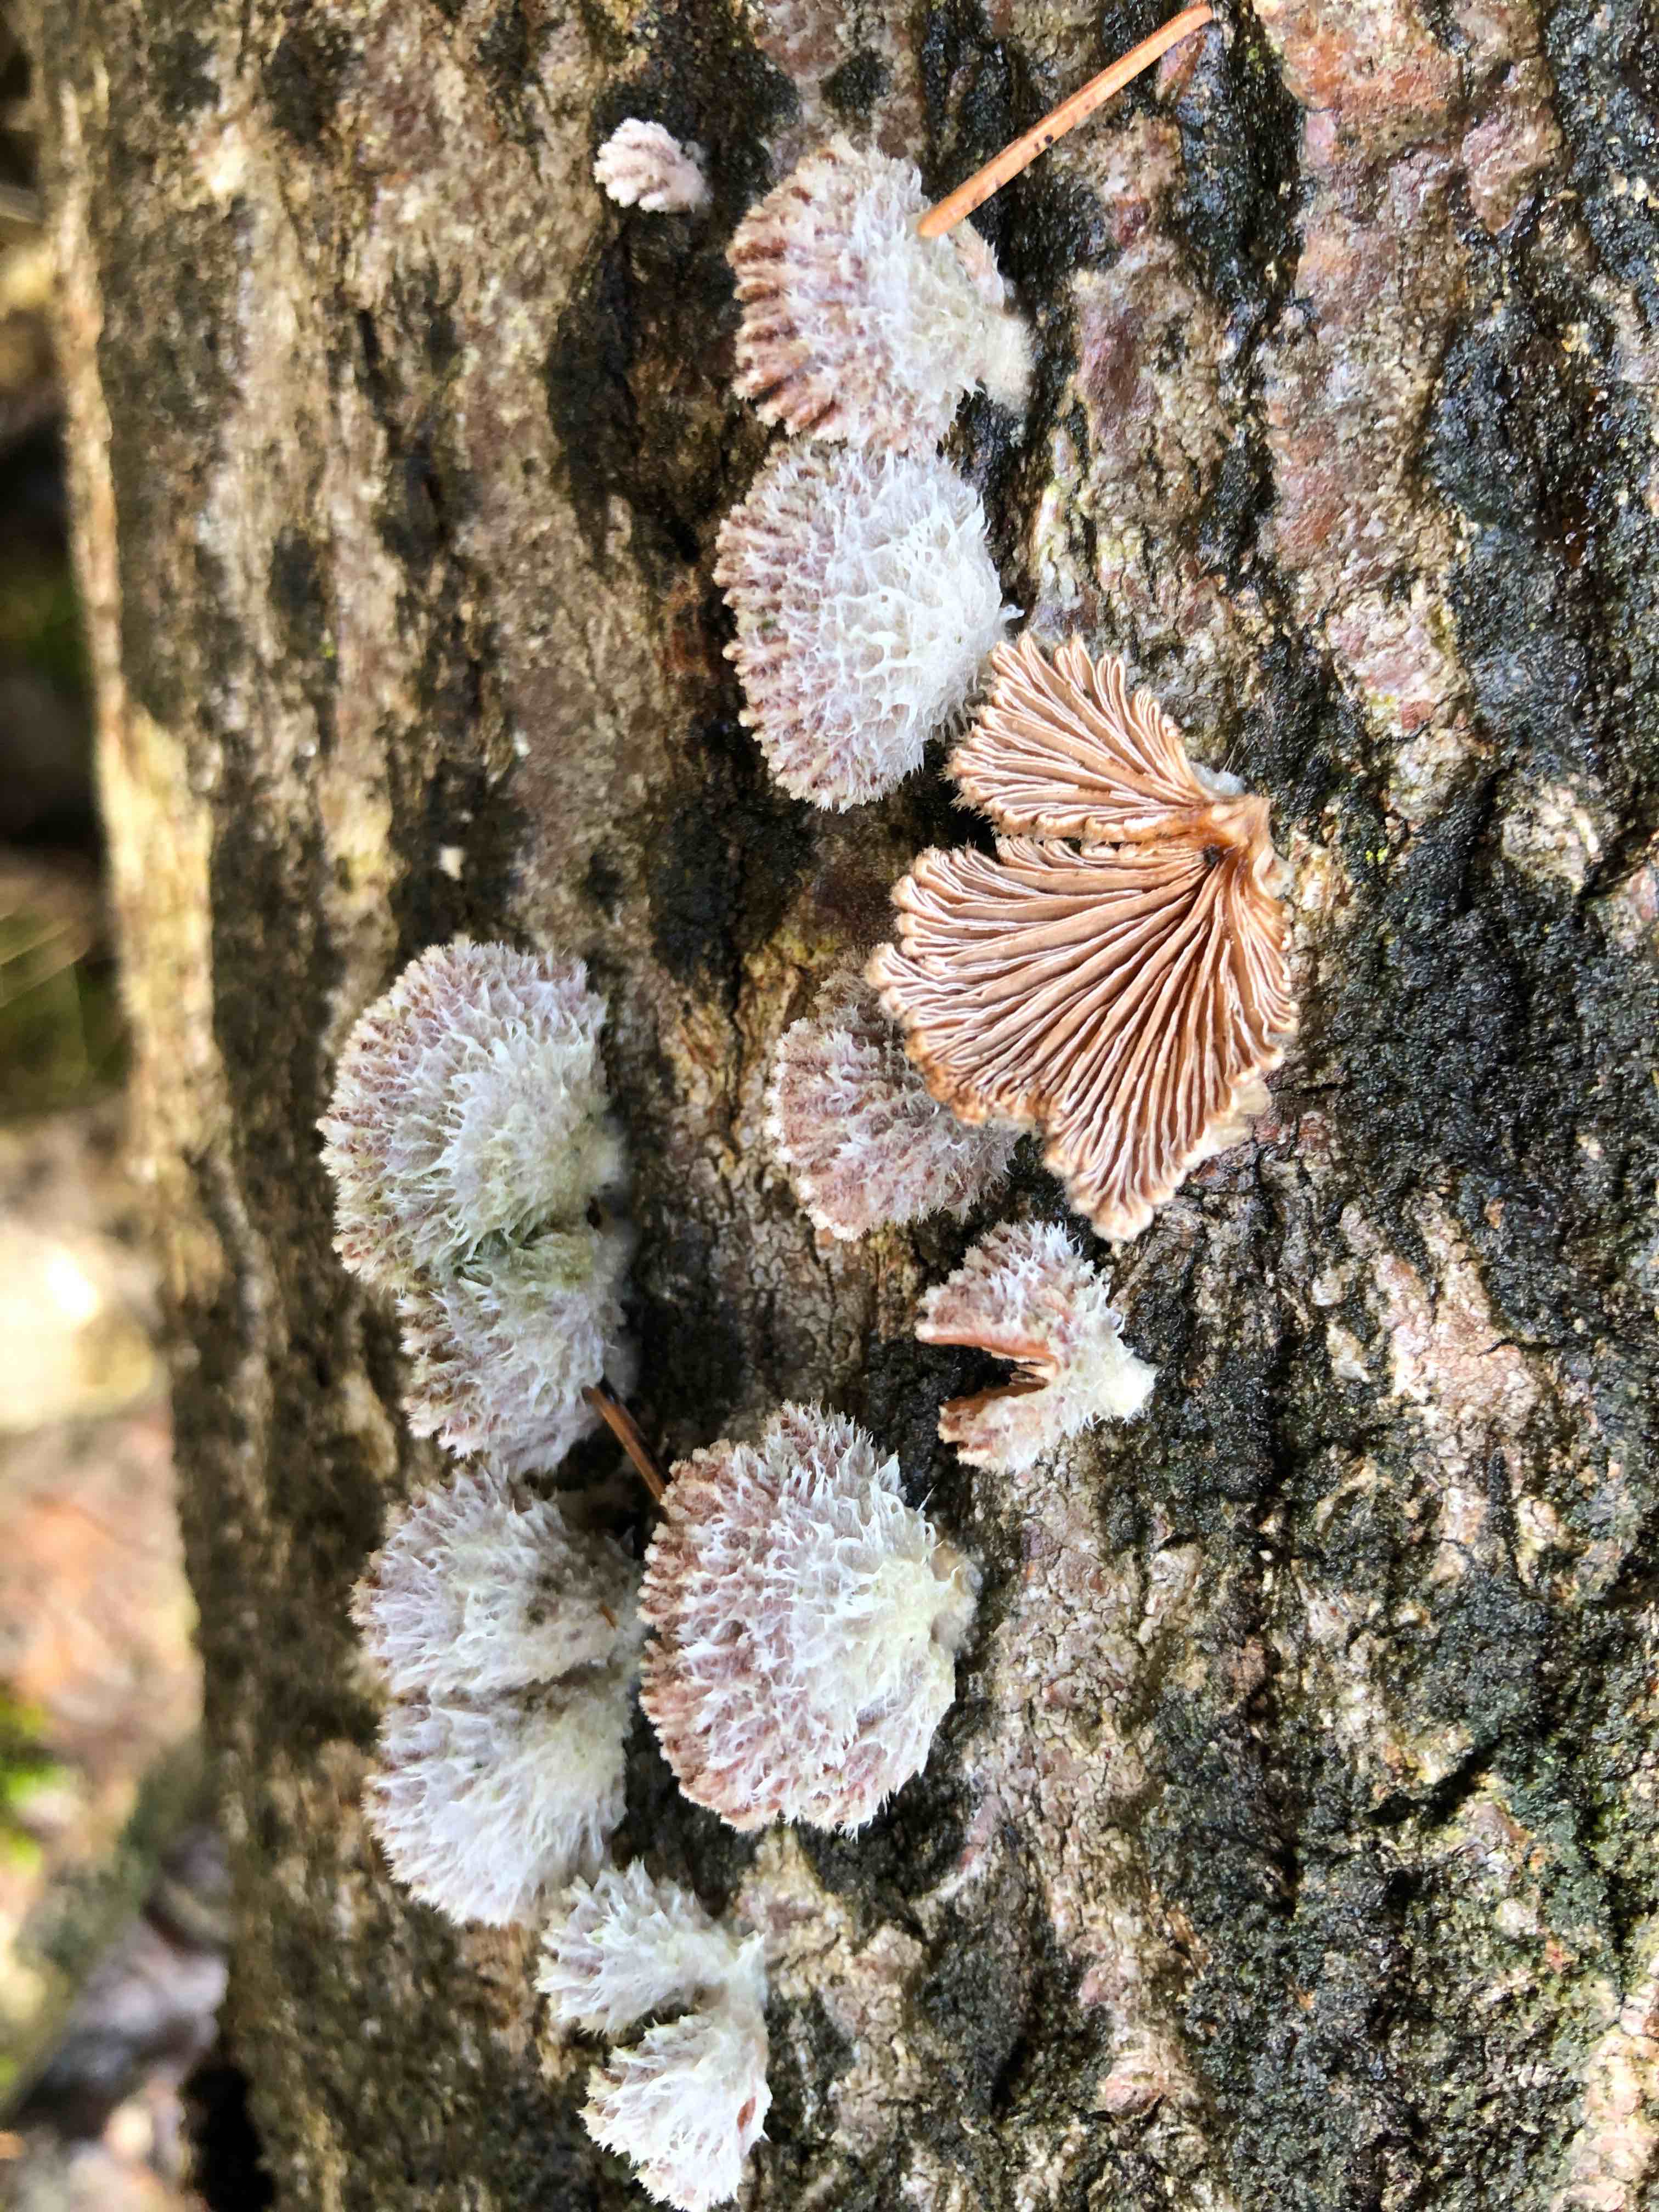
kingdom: Fungi
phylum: Basidiomycota
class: Agaricomycetes
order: Agaricales
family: Schizophyllaceae
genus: Schizophyllum
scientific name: Schizophyllum commune
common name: kløvblad
